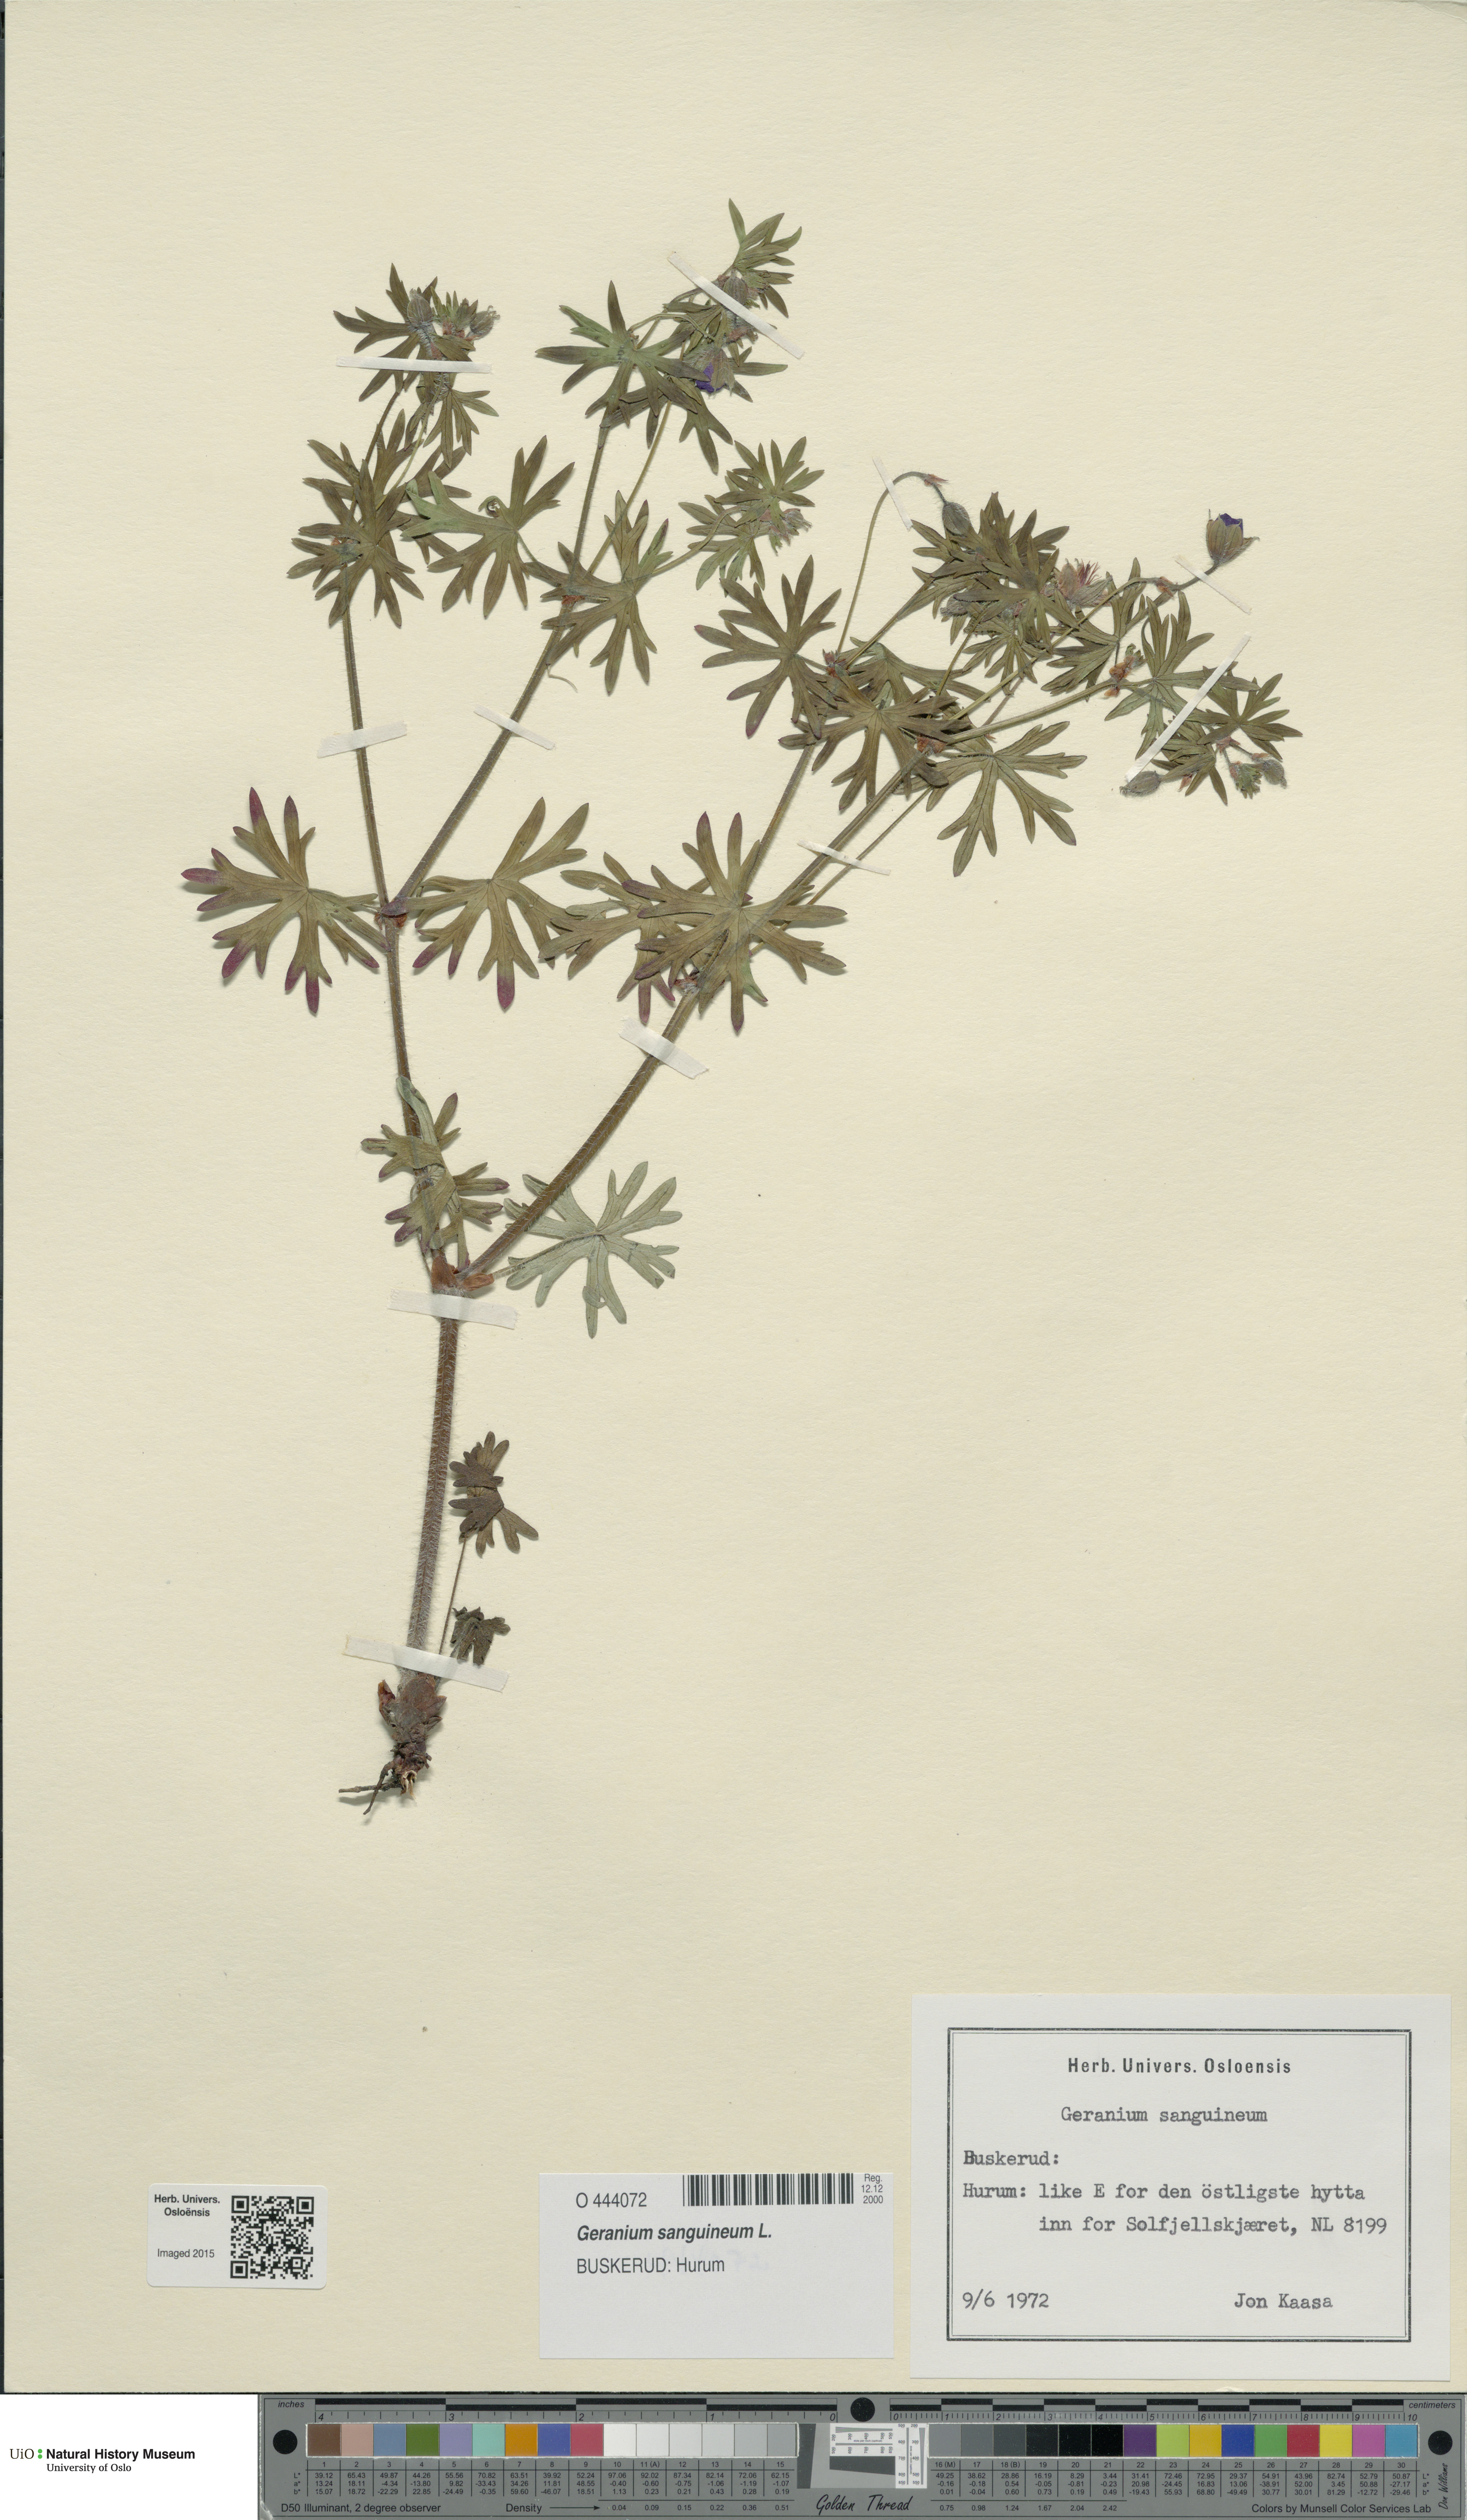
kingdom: Plantae
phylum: Tracheophyta
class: Magnoliopsida
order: Geraniales
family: Geraniaceae
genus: Geranium
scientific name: Geranium sanguineum
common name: Bloody crane's-bill
